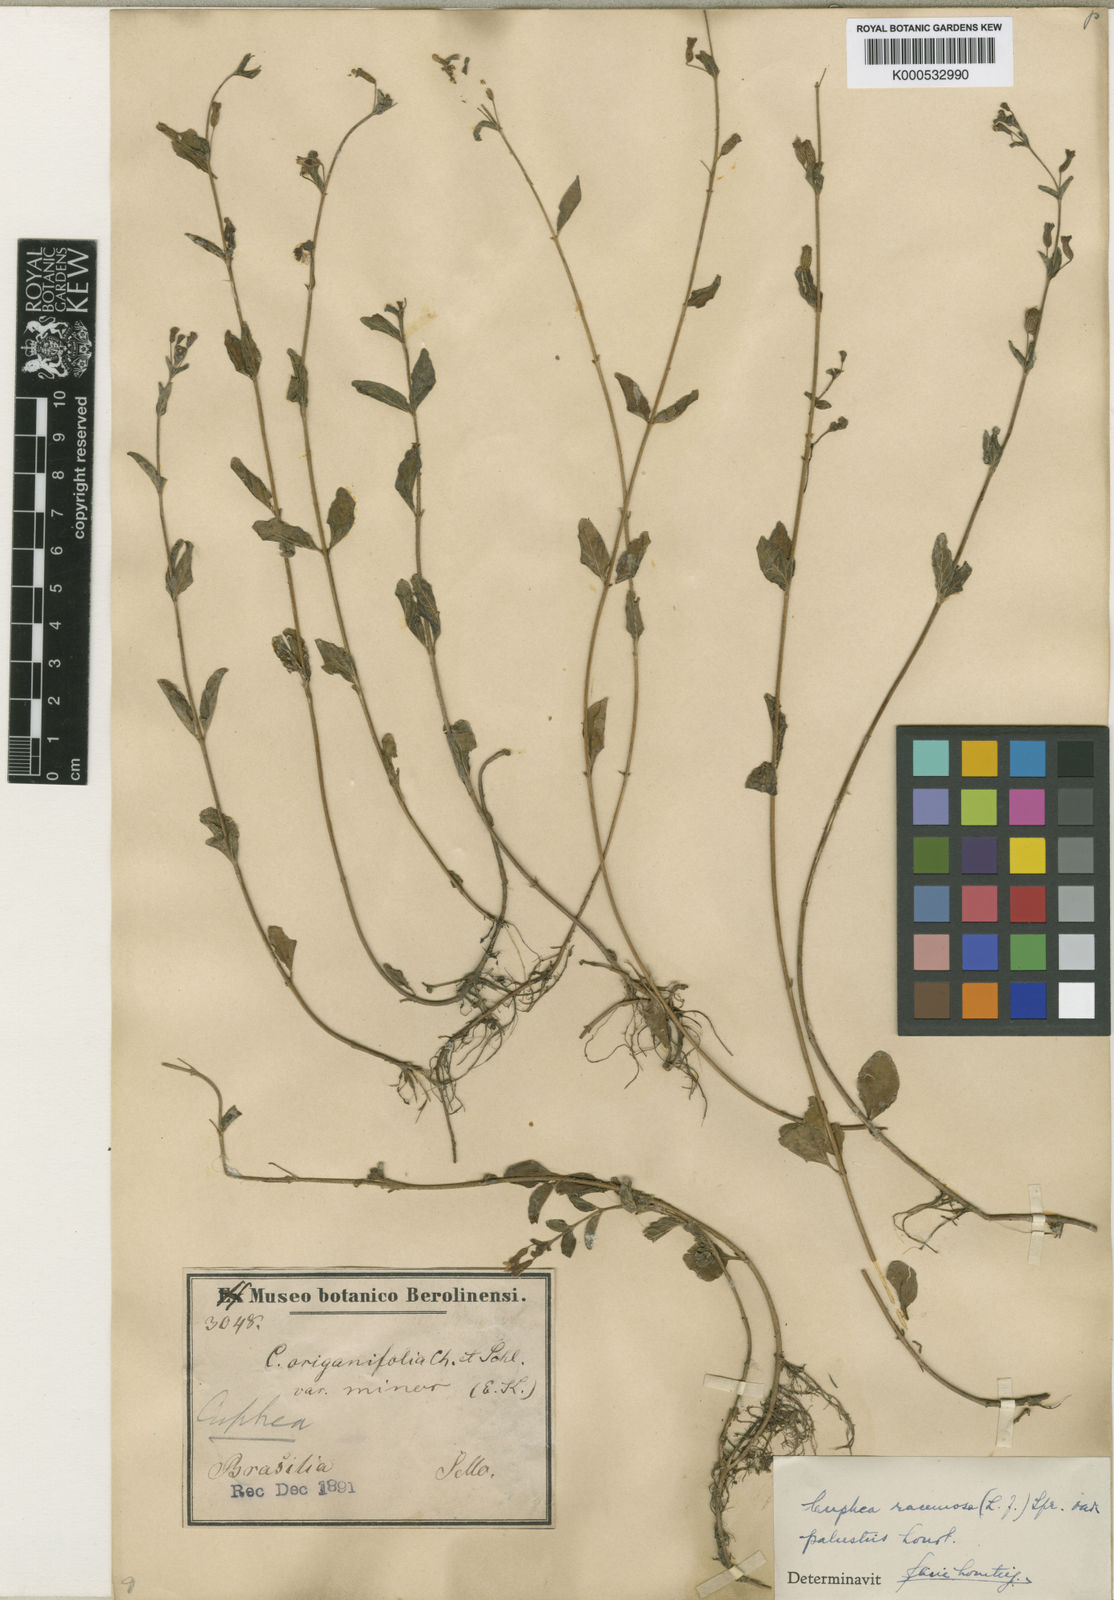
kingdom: Plantae
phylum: Tracheophyta
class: Magnoliopsida
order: Myrtales
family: Lythraceae
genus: Cuphea
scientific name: Cuphea racemosa
